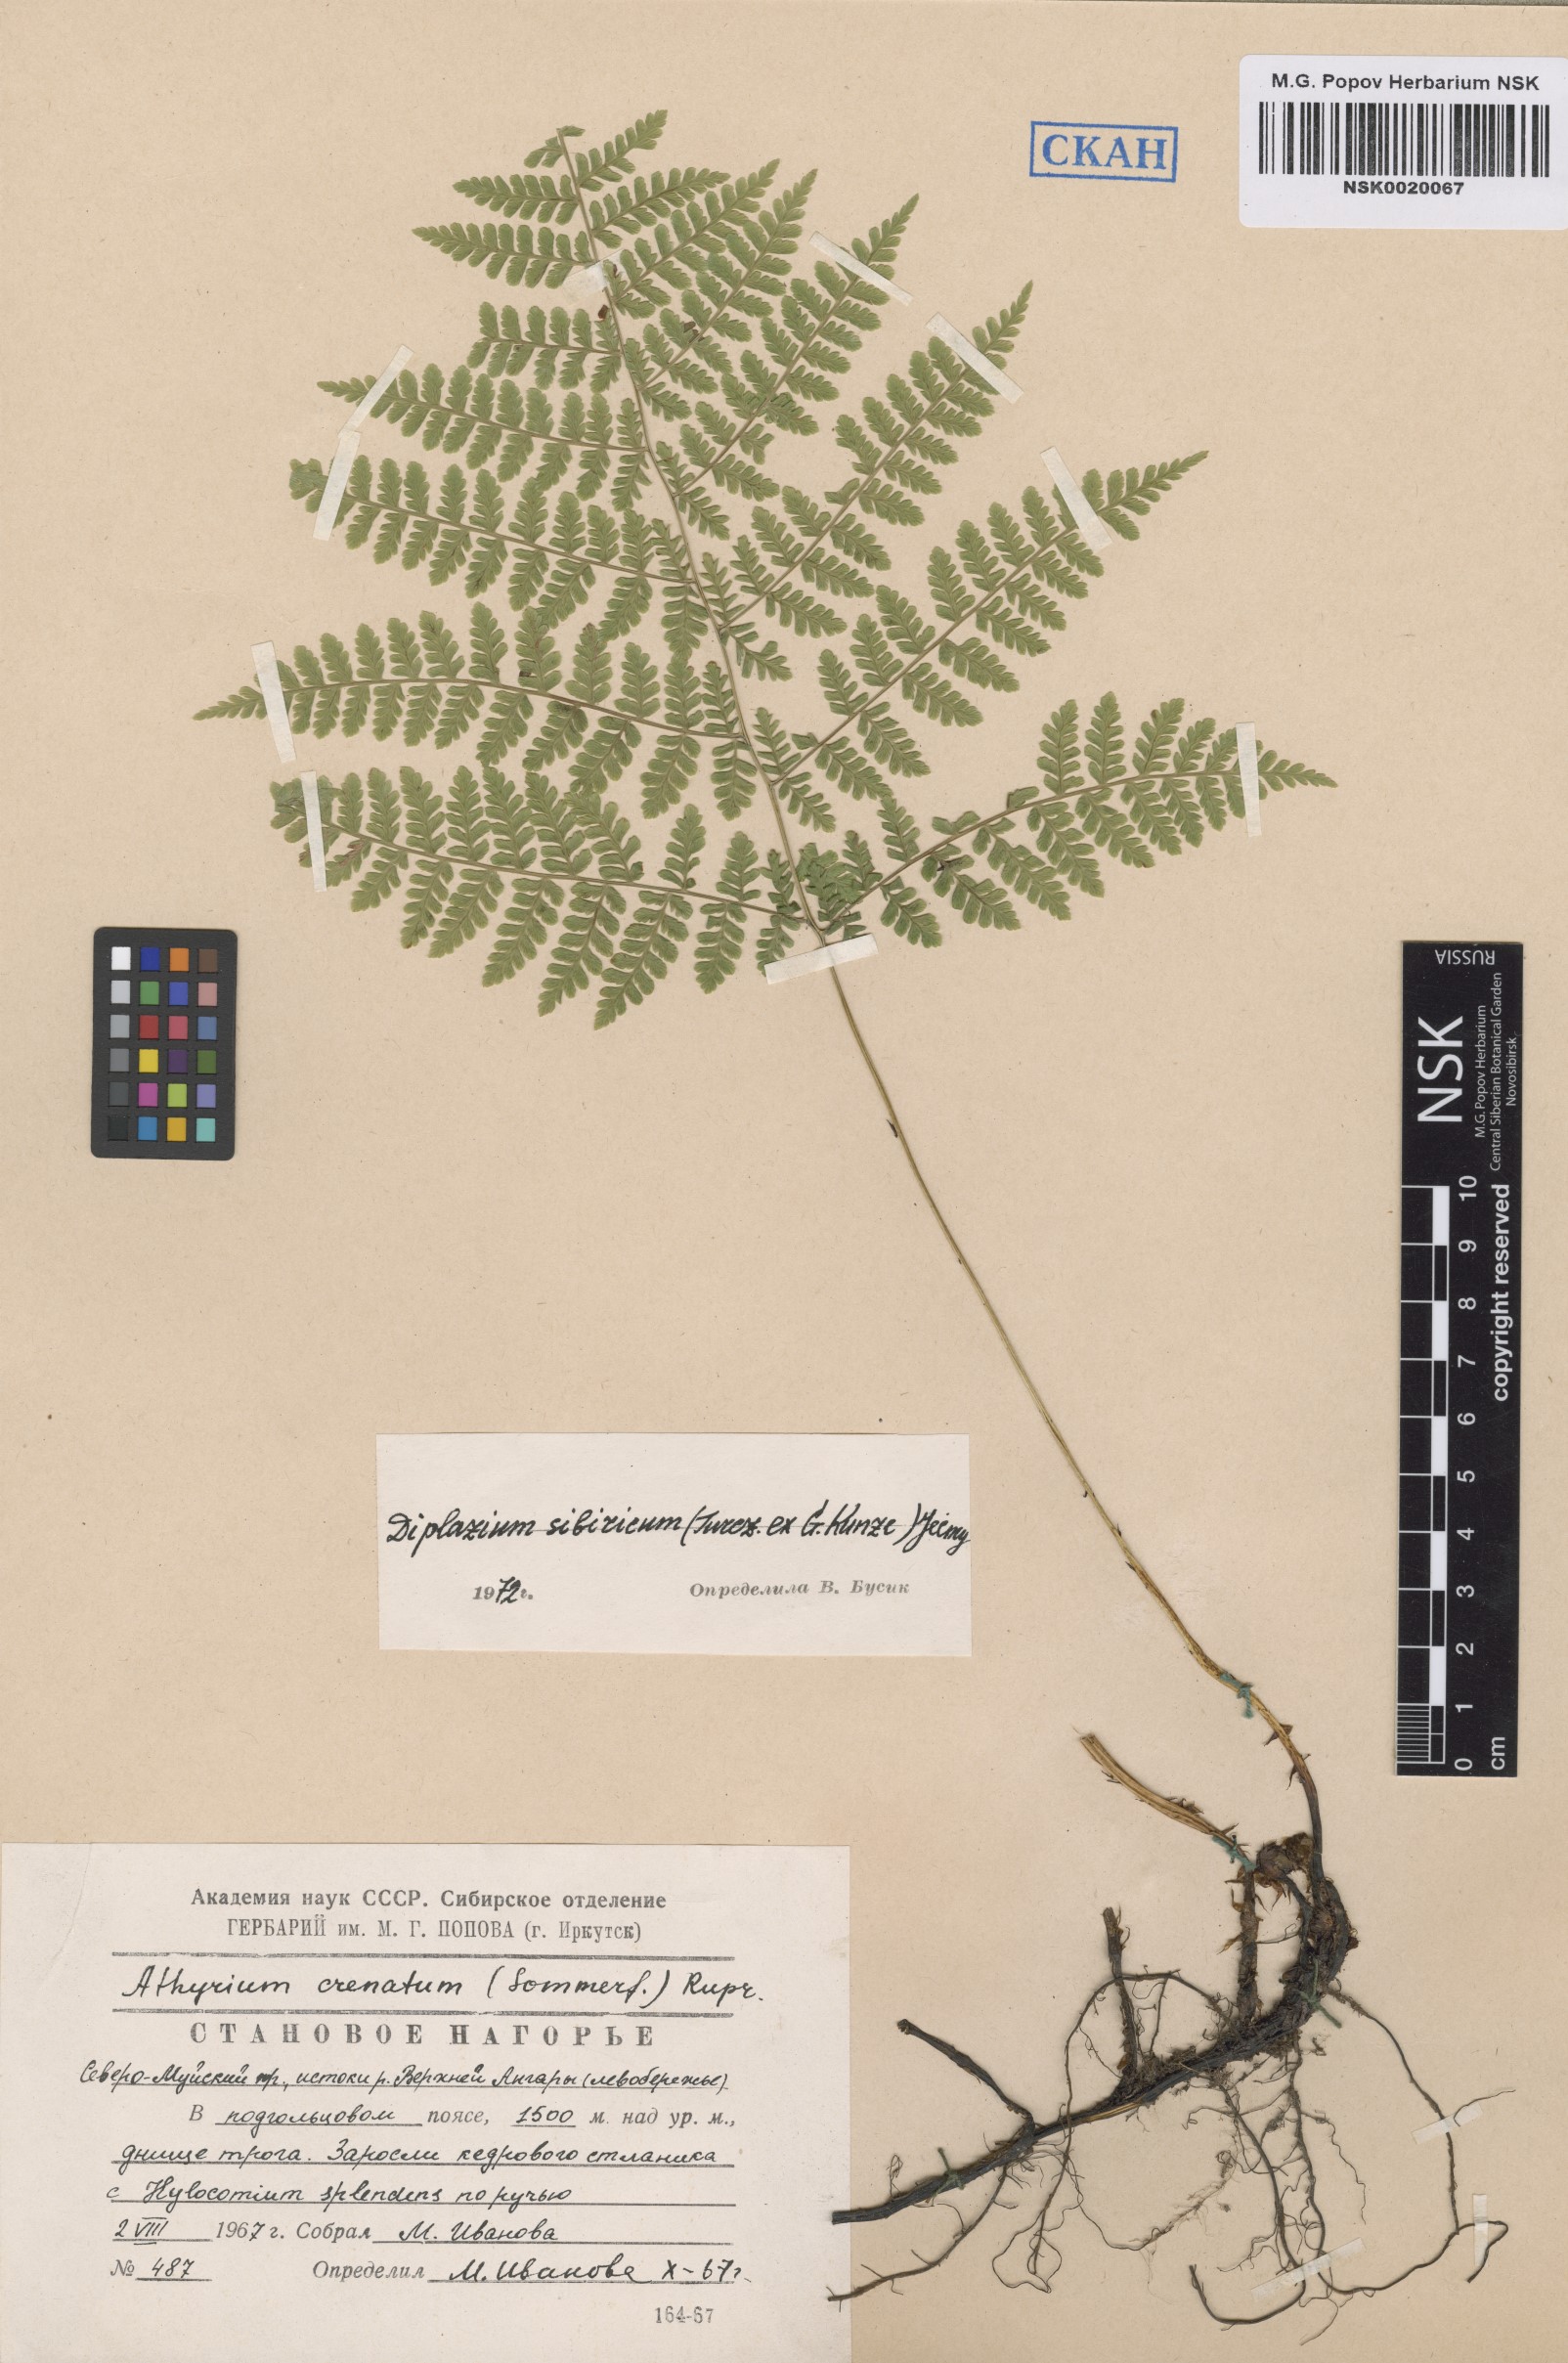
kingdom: Plantae
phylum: Tracheophyta
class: Polypodiopsida
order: Polypodiales
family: Athyriaceae
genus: Diplazium
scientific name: Diplazium sibiricum
